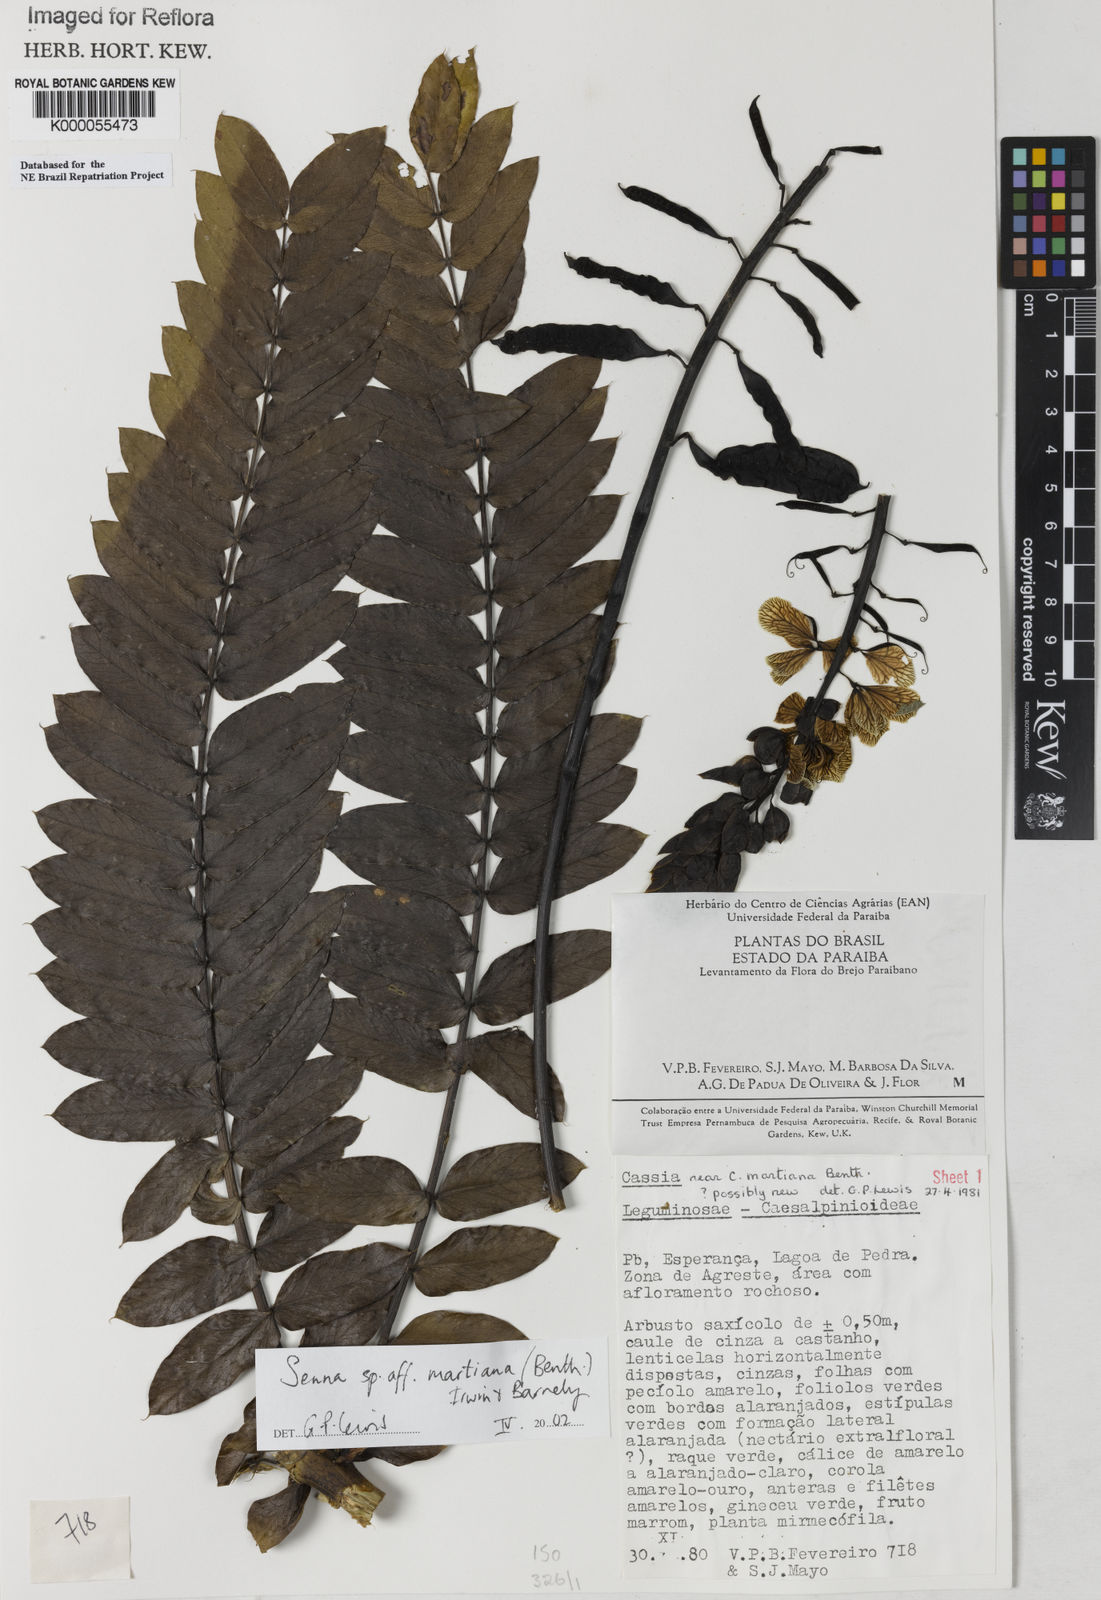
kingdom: Plantae
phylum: Tracheophyta
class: Magnoliopsida
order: Fabales
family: Fabaceae
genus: Senna
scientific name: Senna martiana
